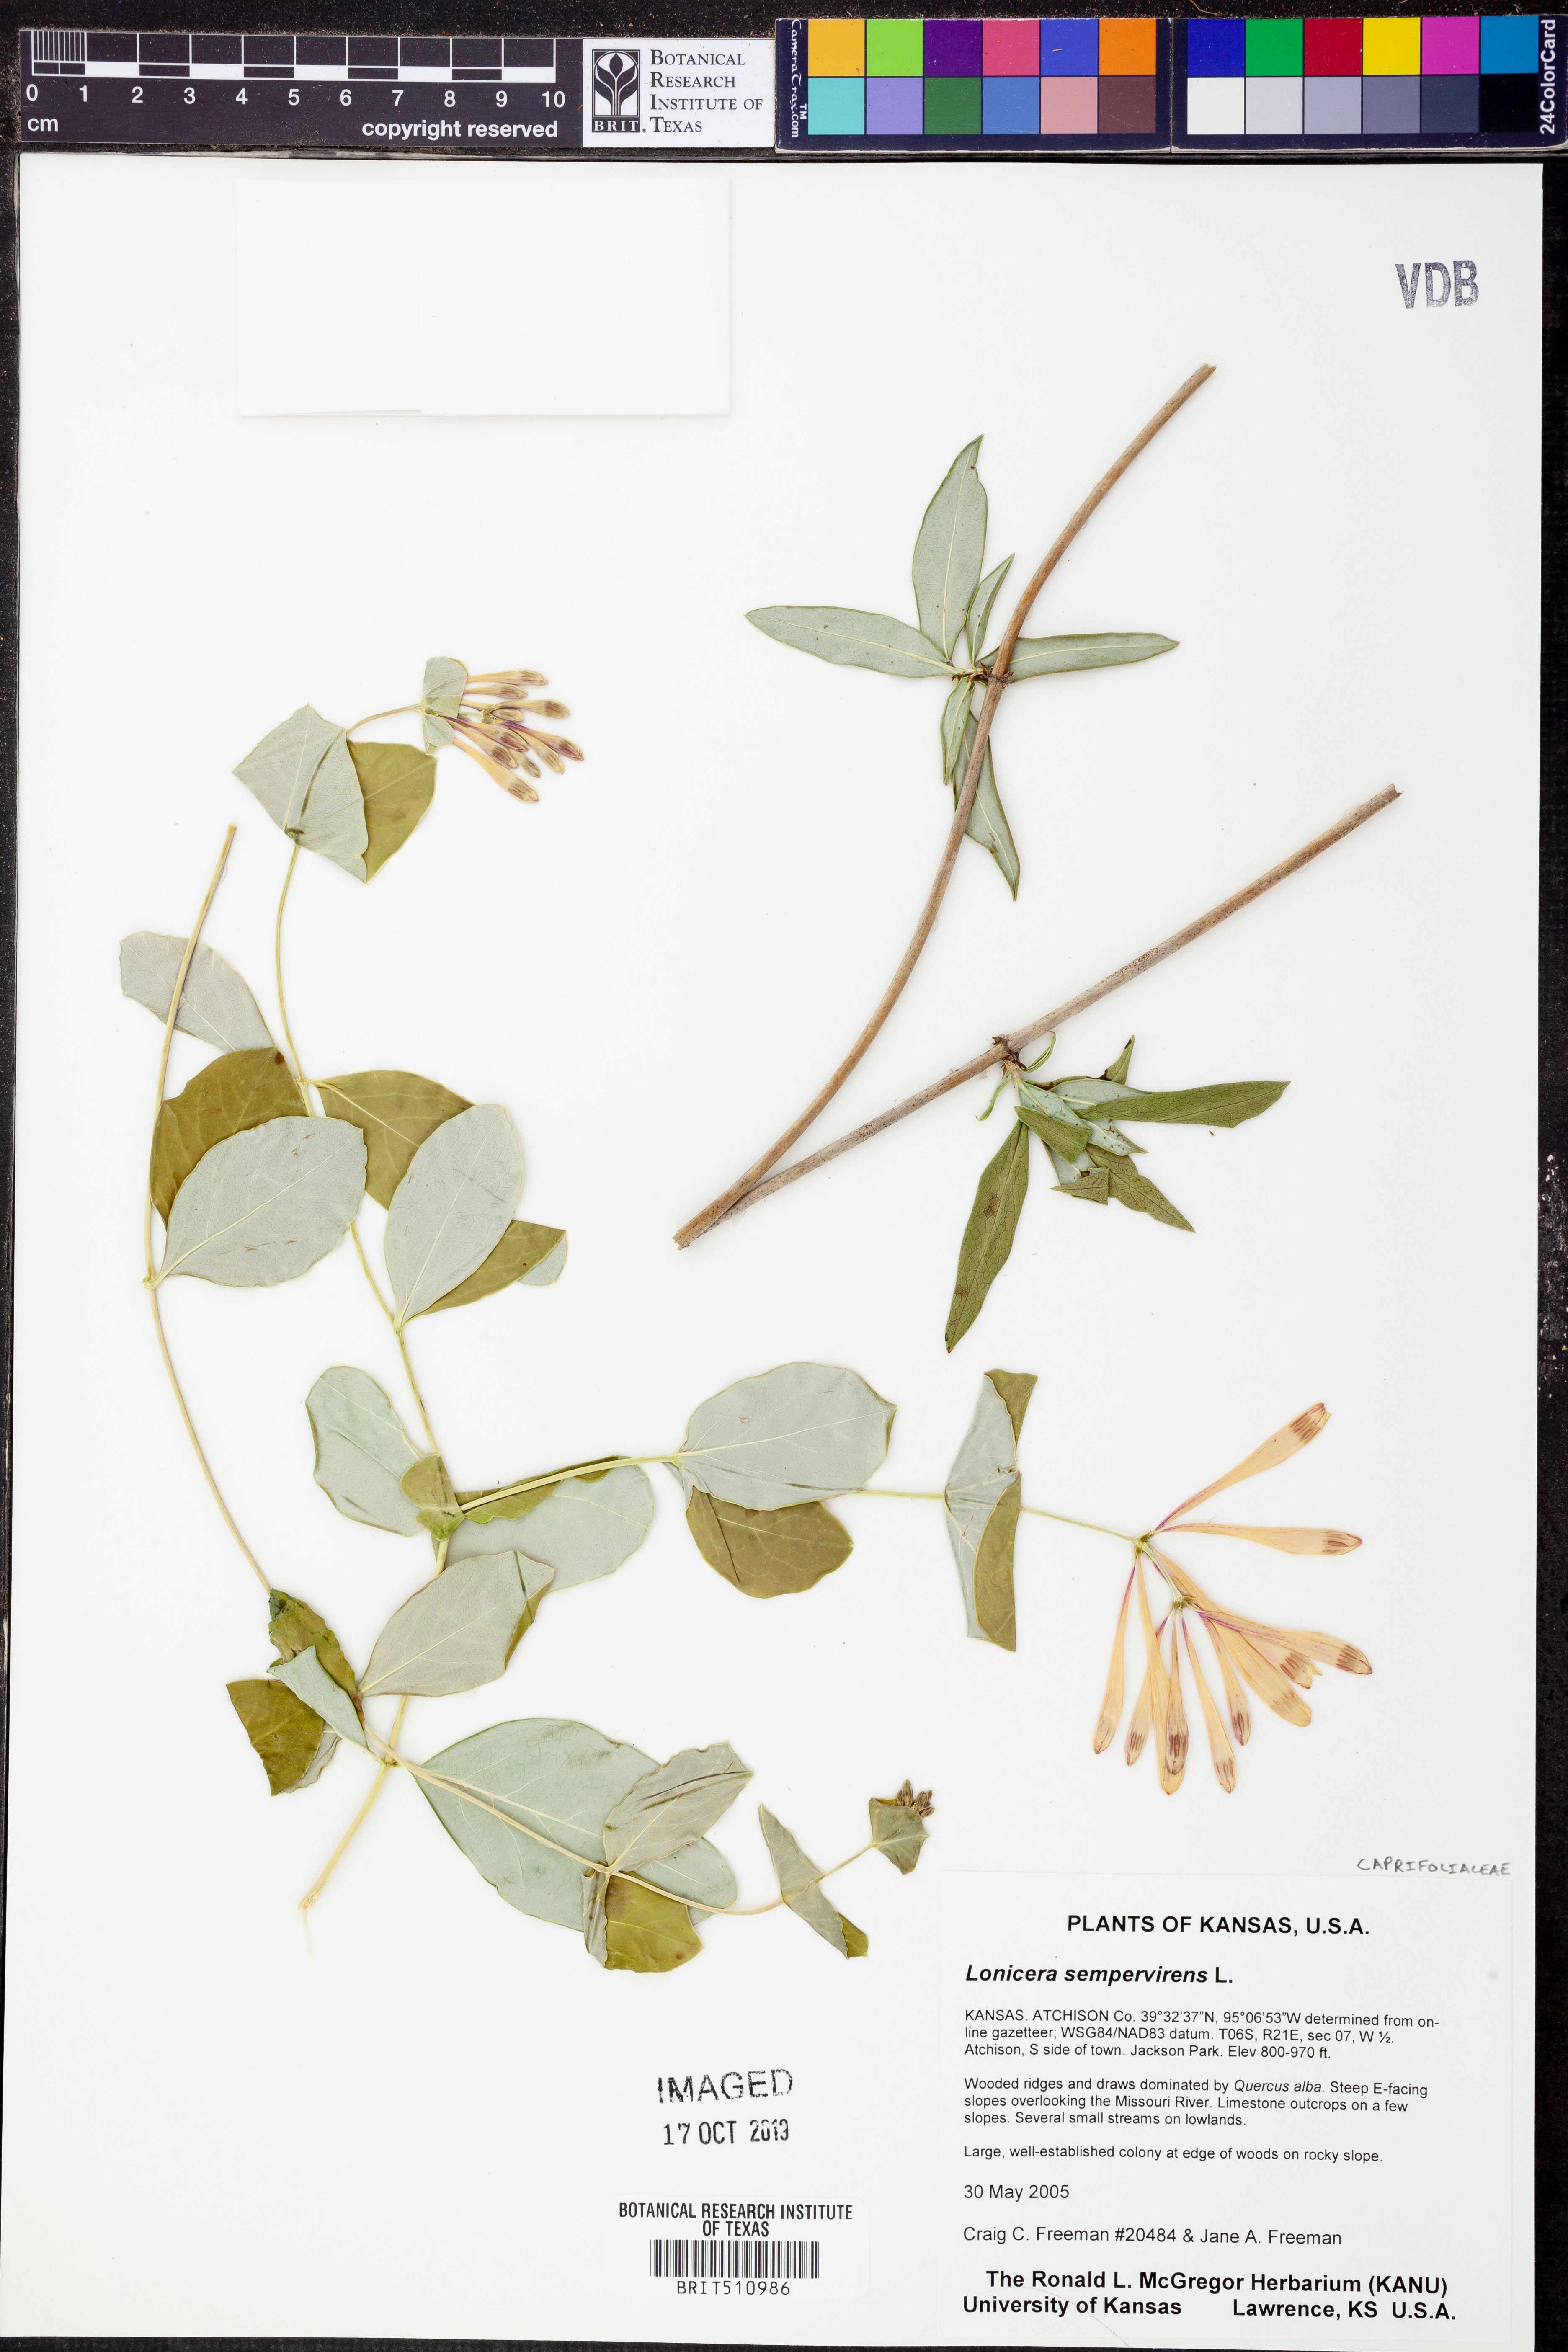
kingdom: Plantae
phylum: Tracheophyta
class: Magnoliopsida
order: Dipsacales
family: Caprifoliaceae
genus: Lonicera
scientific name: Lonicera sempervirens
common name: Coral honeysuckle
